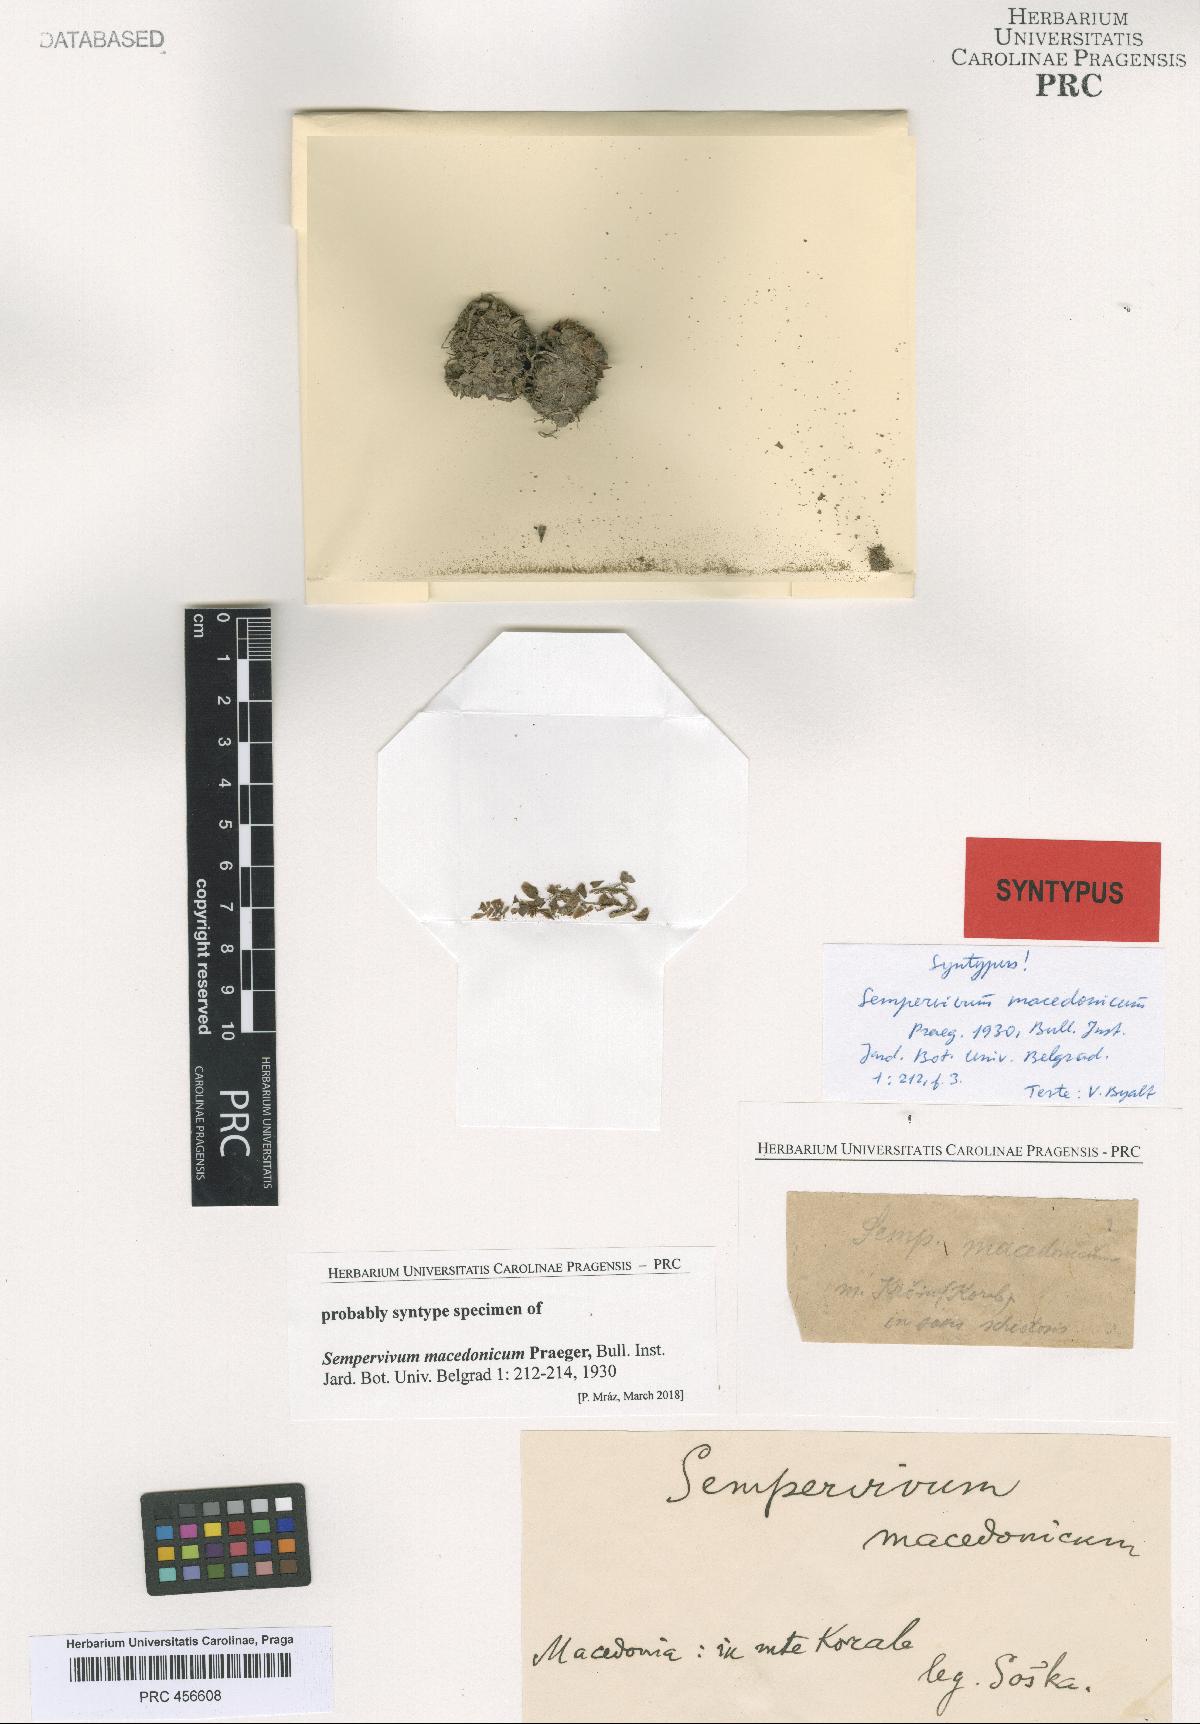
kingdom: Plantae
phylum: Tracheophyta
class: Magnoliopsida
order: Saxifragales
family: Crassulaceae
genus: Sempervivum
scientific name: Sempervivum marmoreum
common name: Houseleek
